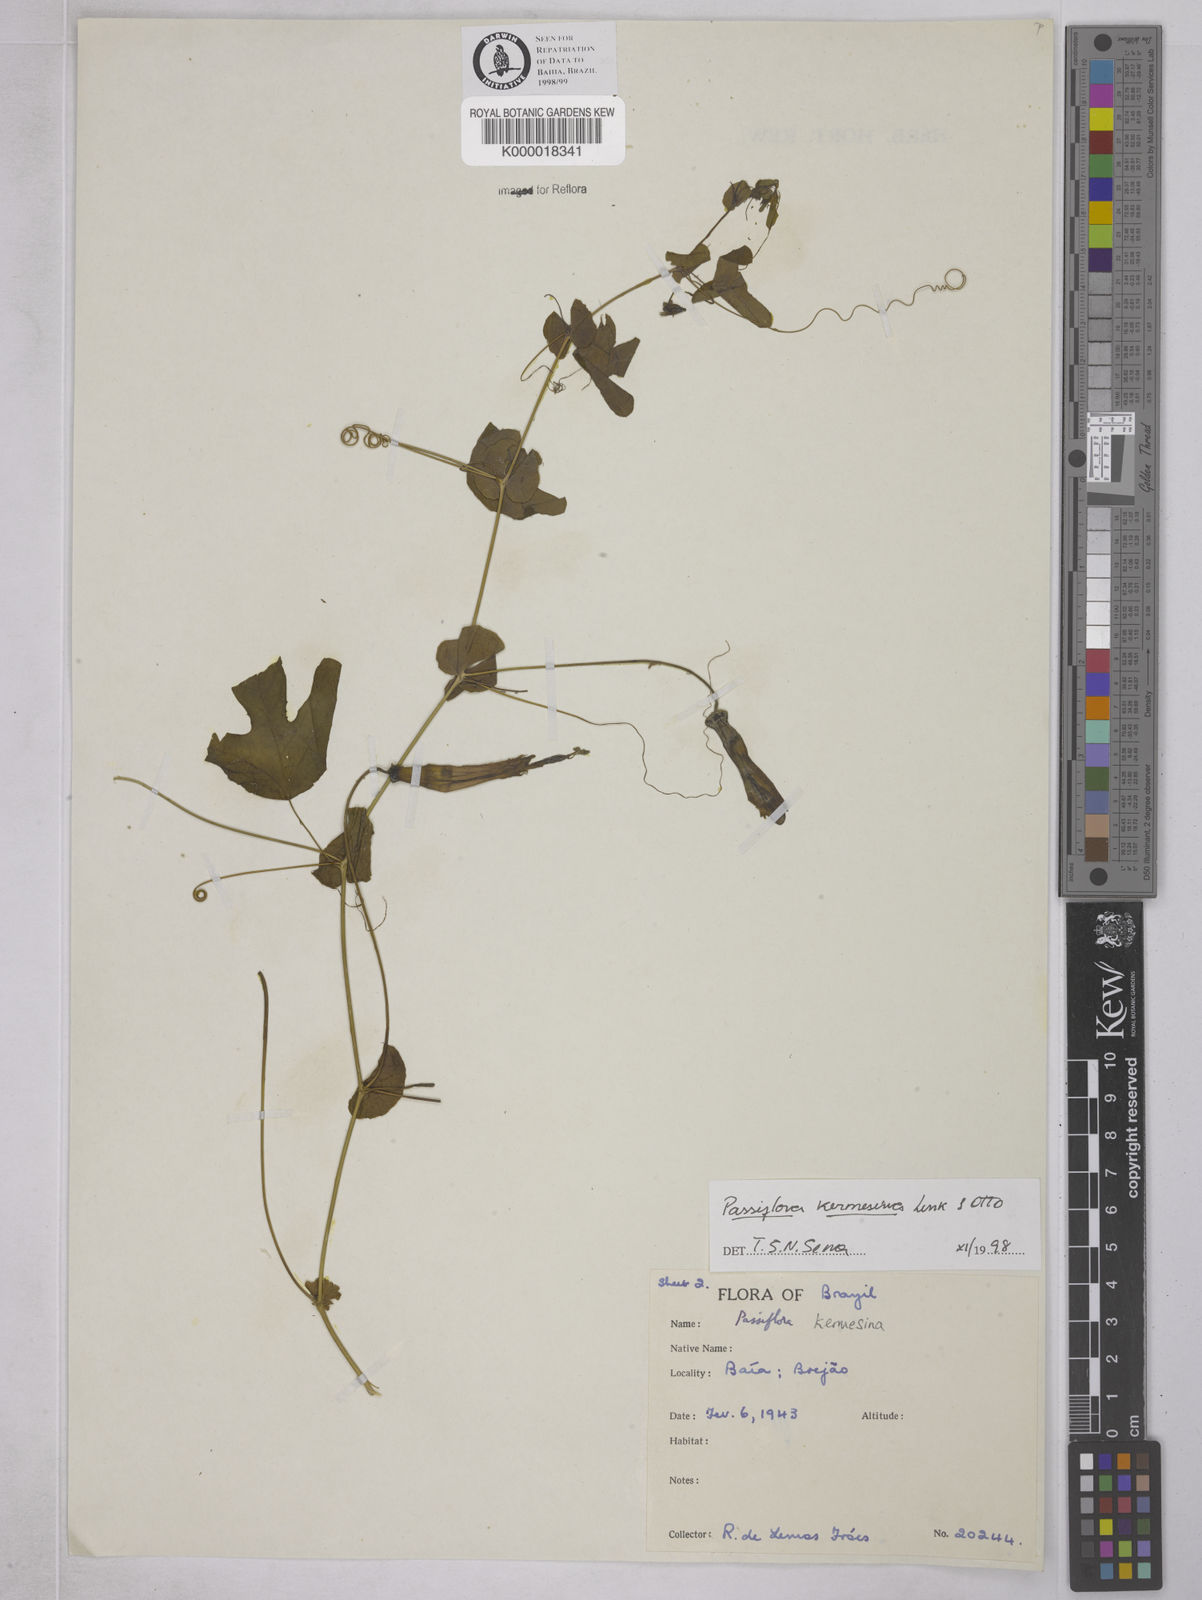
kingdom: Plantae
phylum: Tracheophyta
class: Magnoliopsida
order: Malpighiales
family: Passifloraceae
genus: Passiflora
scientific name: Passiflora kermesina
